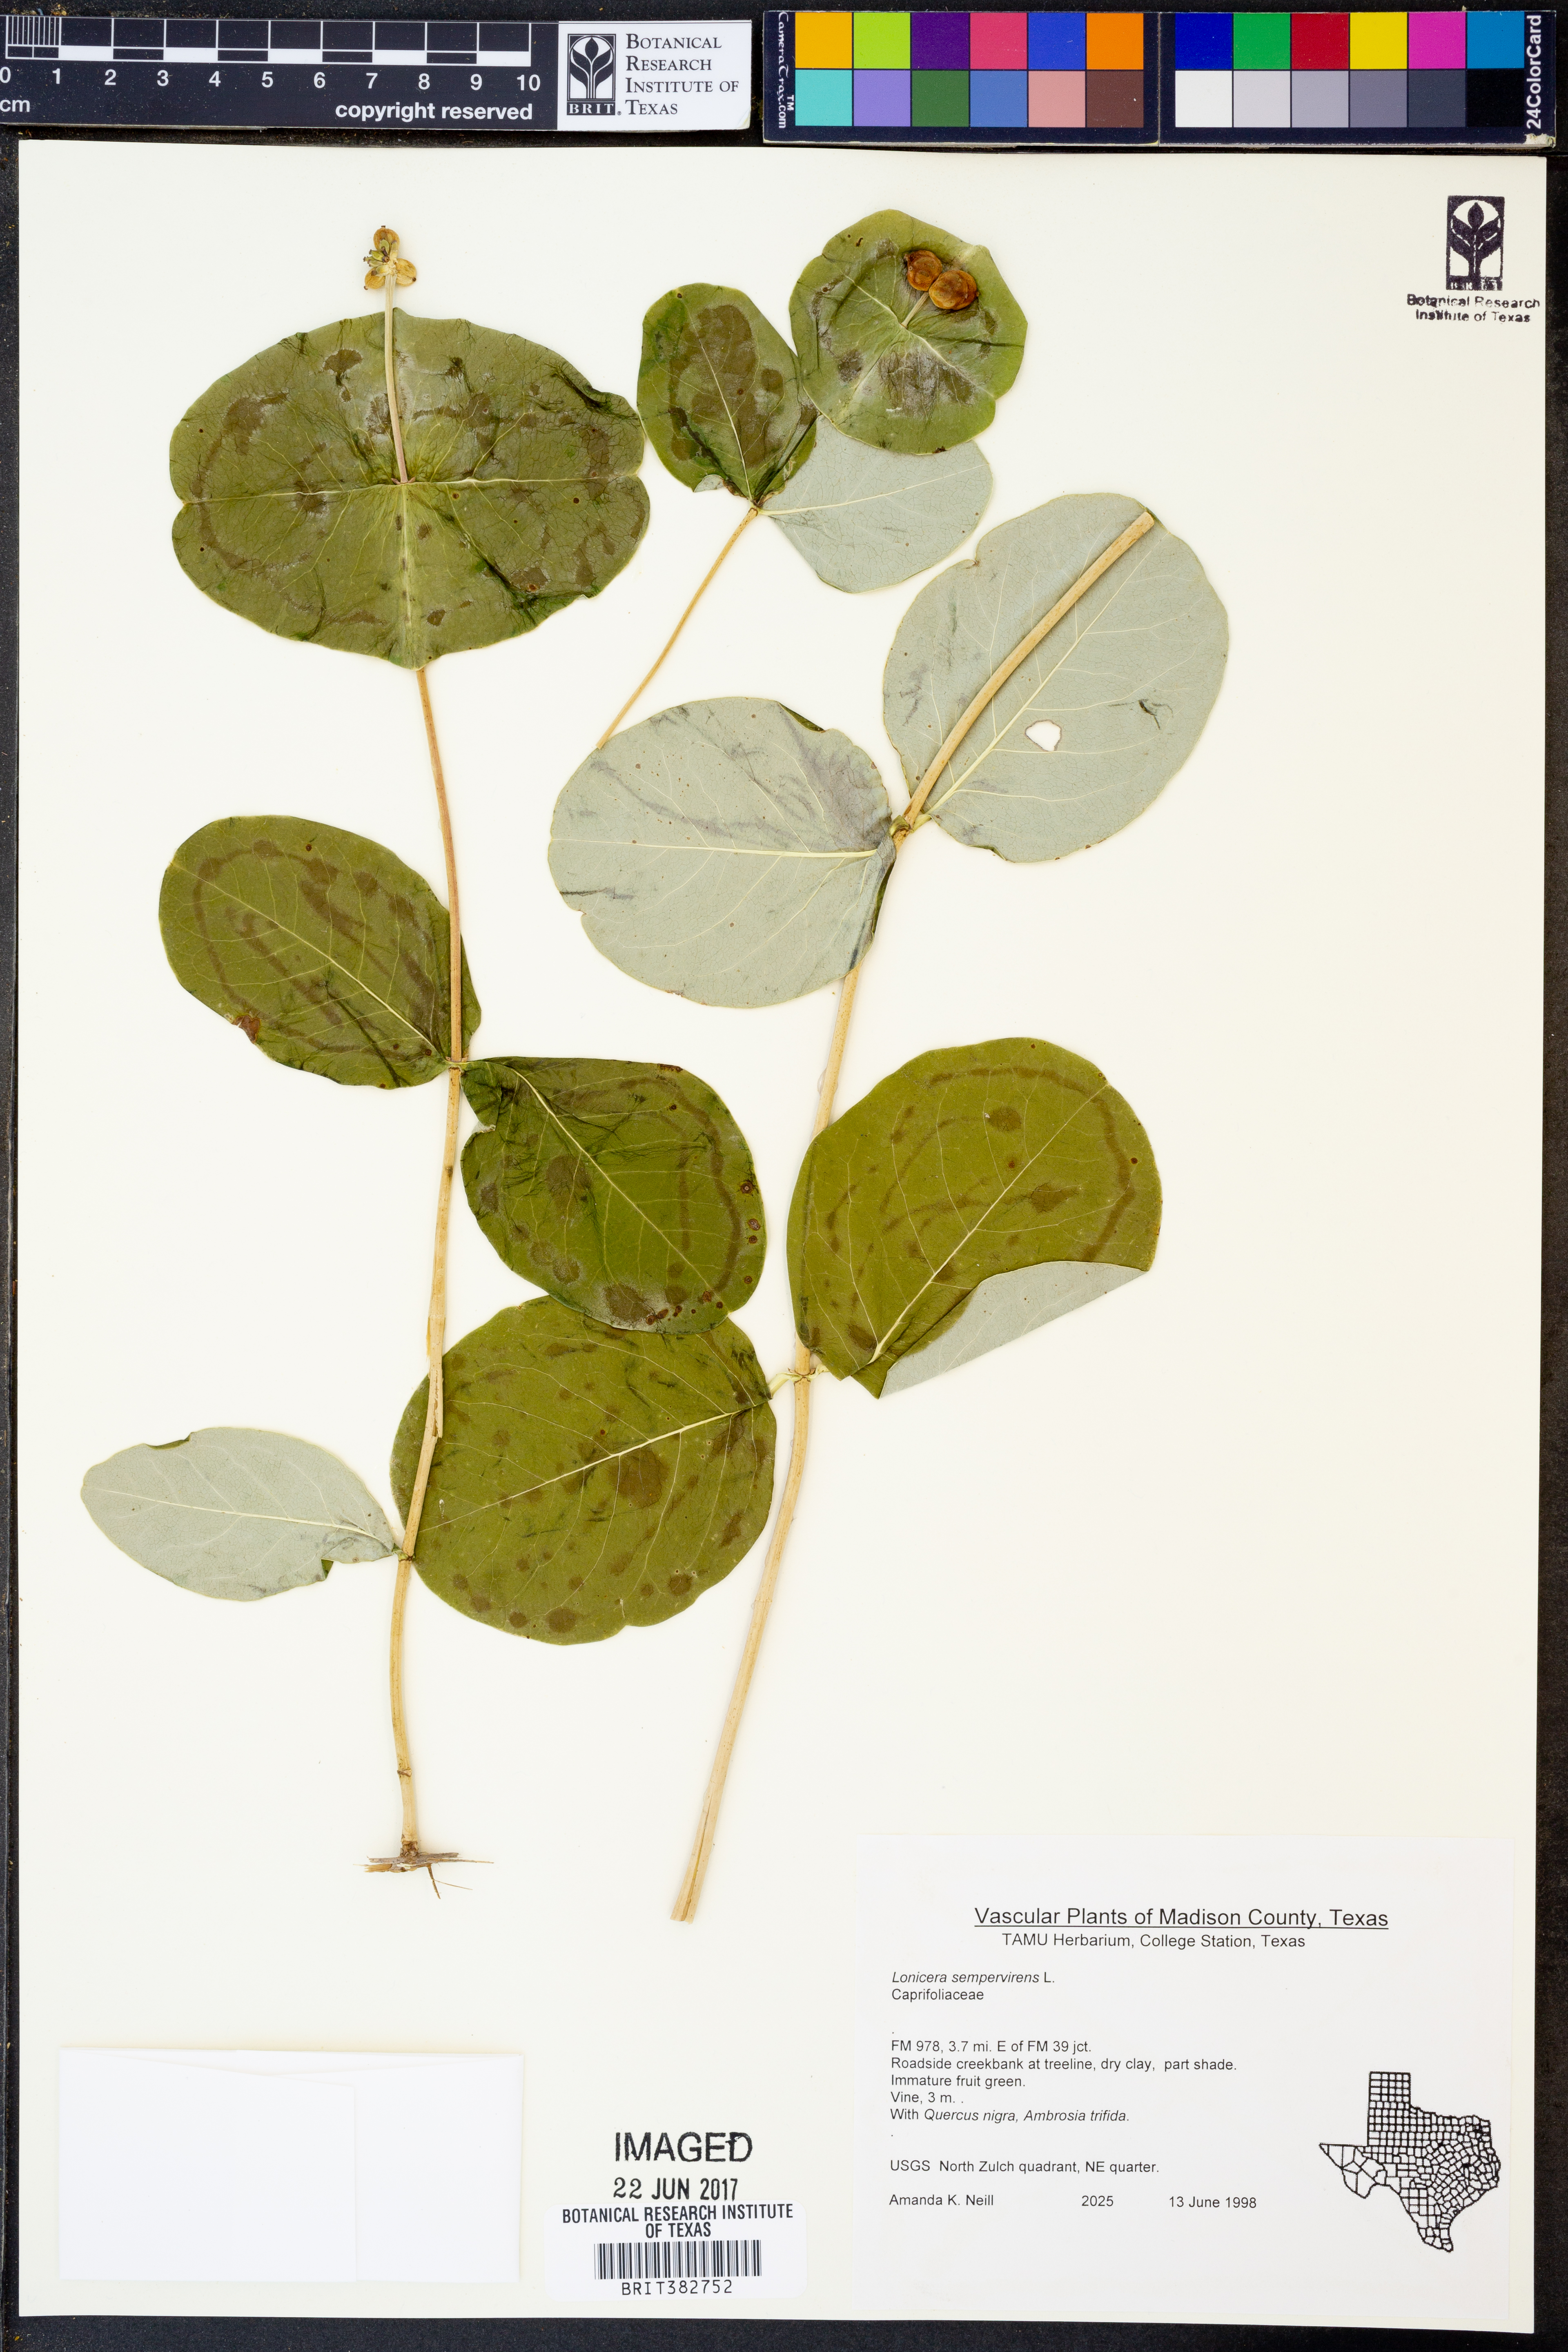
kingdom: Plantae
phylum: Tracheophyta
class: Magnoliopsida
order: Dipsacales
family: Caprifoliaceae
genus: Lonicera
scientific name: Lonicera sempervirens
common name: Coral honeysuckle
